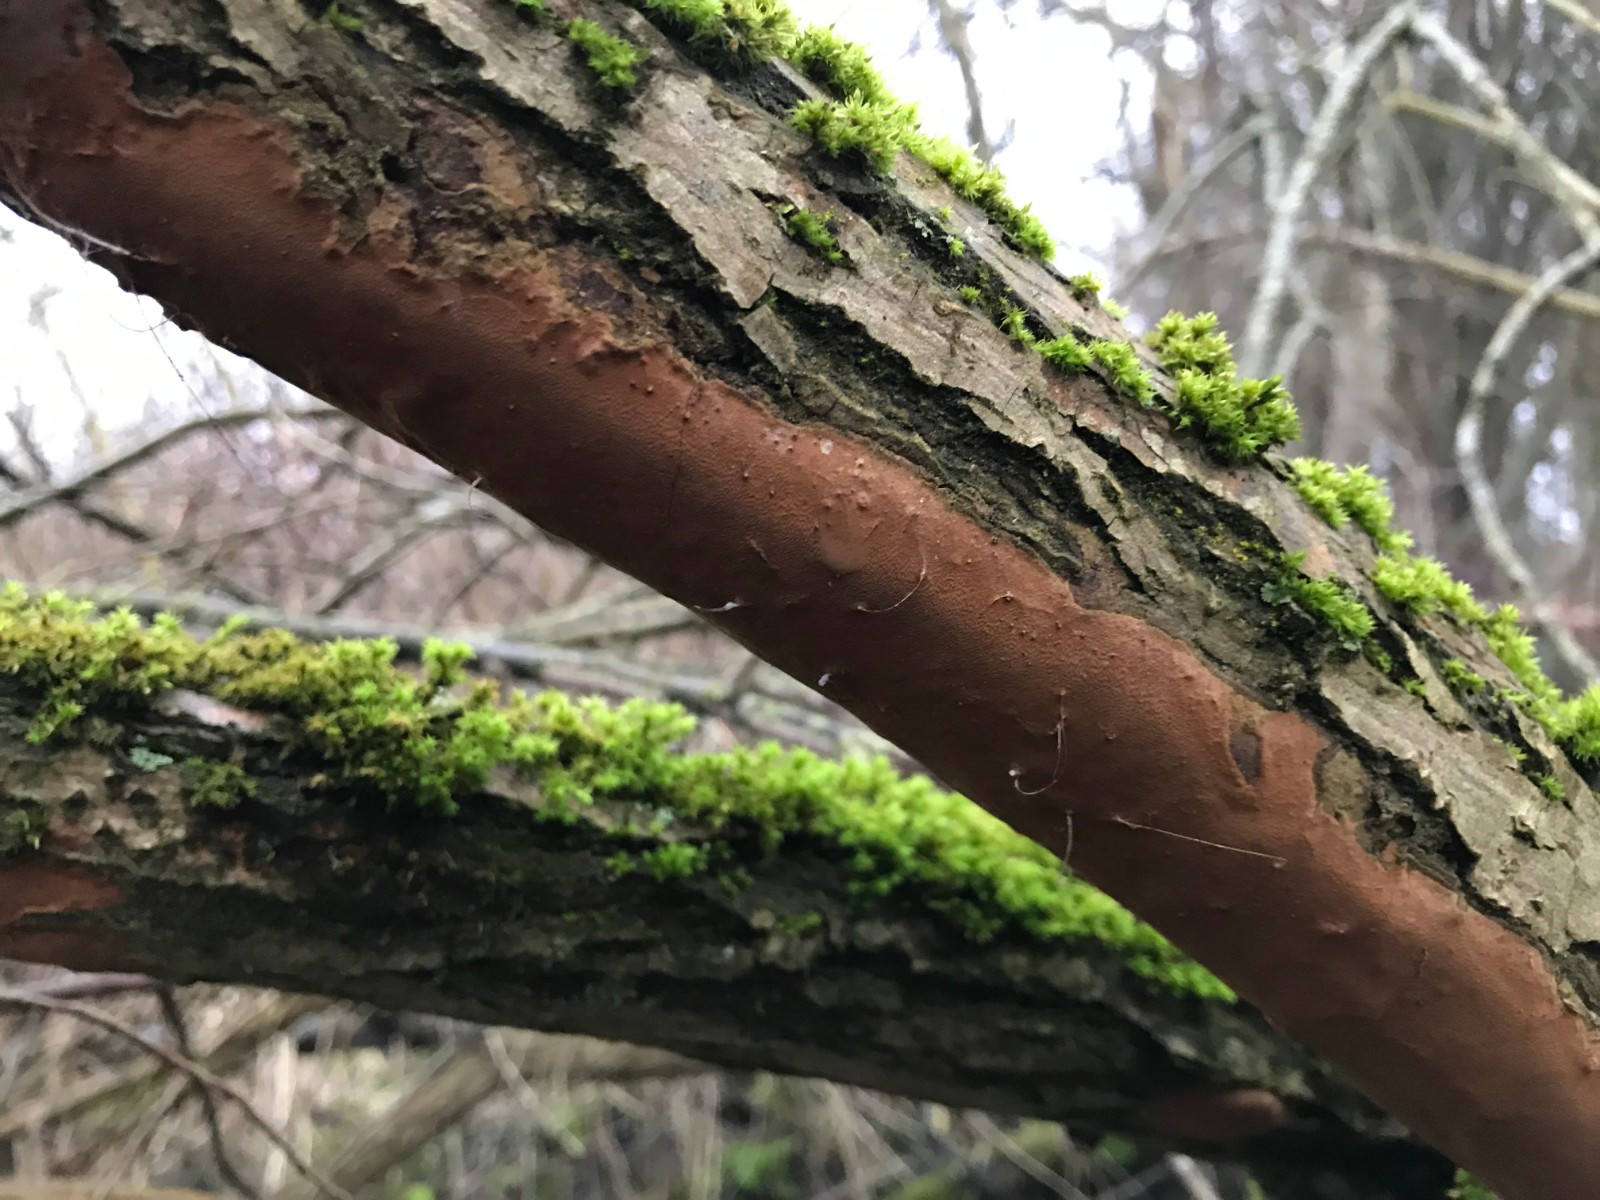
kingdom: Fungi
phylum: Basidiomycota
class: Agaricomycetes
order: Hymenochaetales
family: Hymenochaetaceae
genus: Fomitiporia
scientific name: Fomitiporia punctata
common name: pude-ildporesvamp
